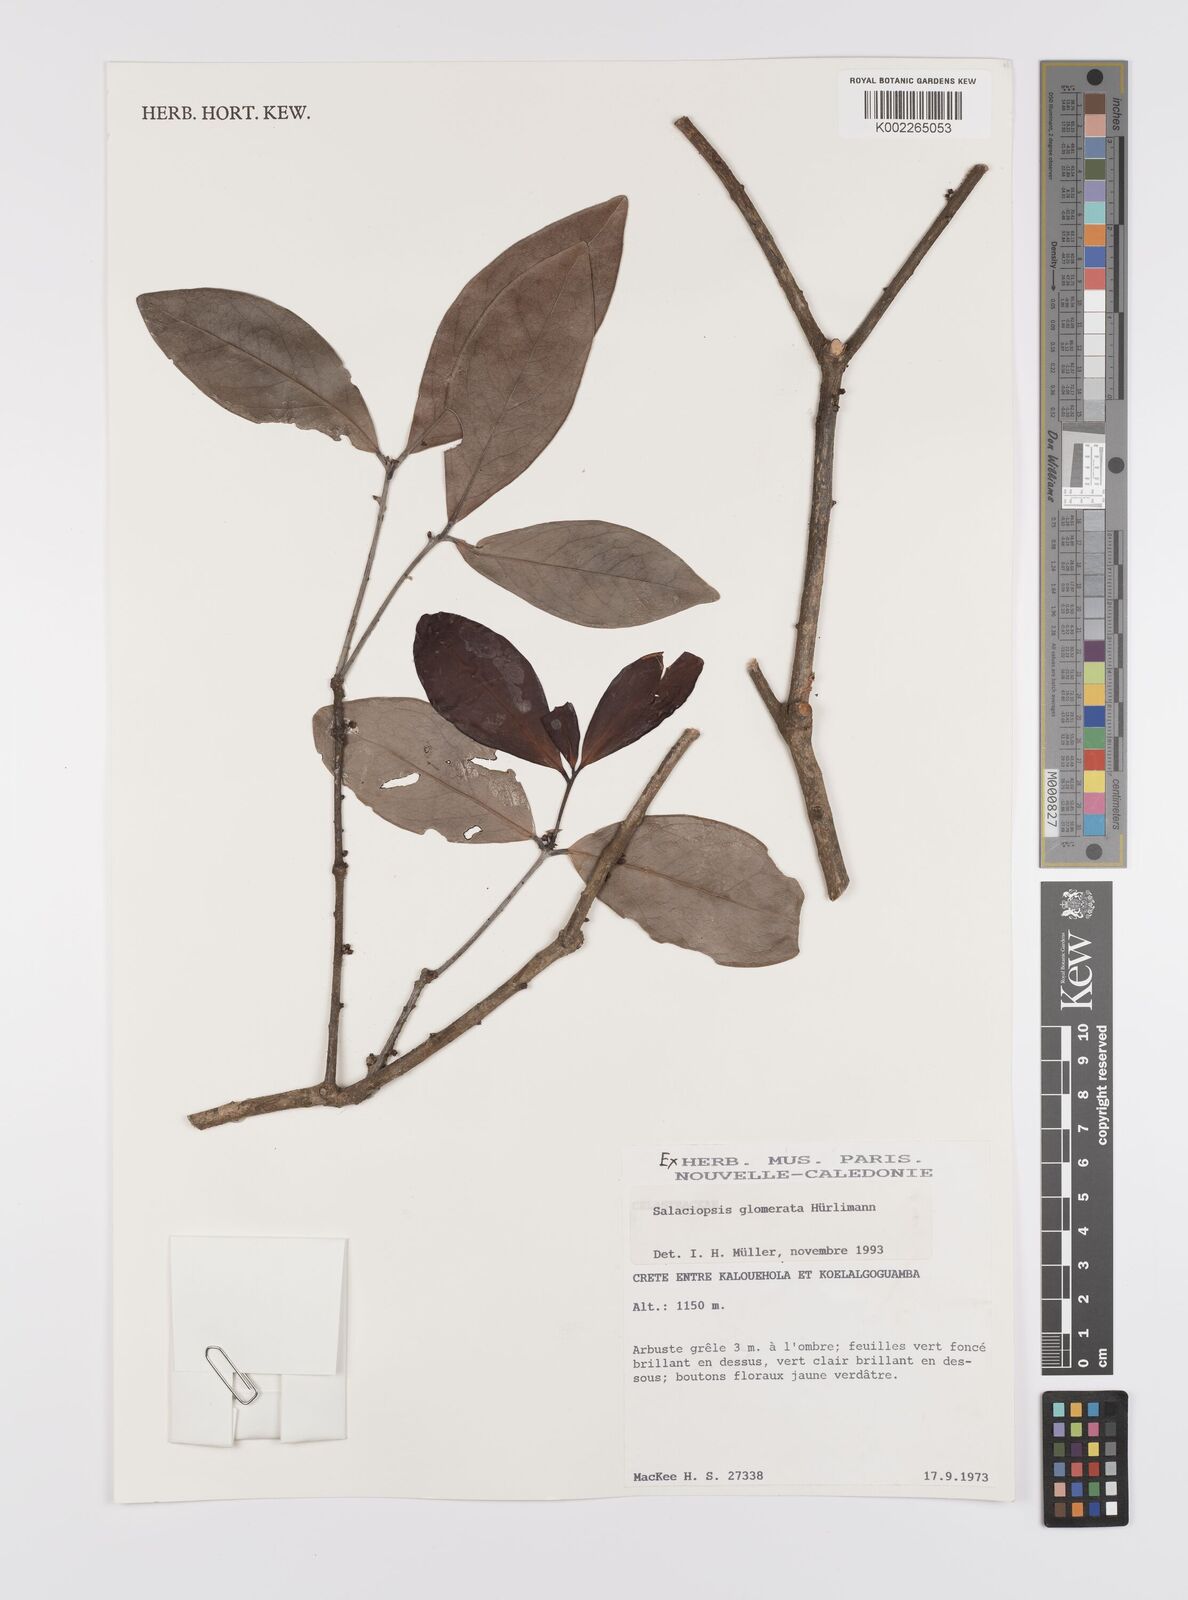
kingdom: Plantae
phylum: Tracheophyta
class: Magnoliopsida
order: Celastrales
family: Celastraceae
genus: Salaciopsis
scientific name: Salaciopsis glomerata
